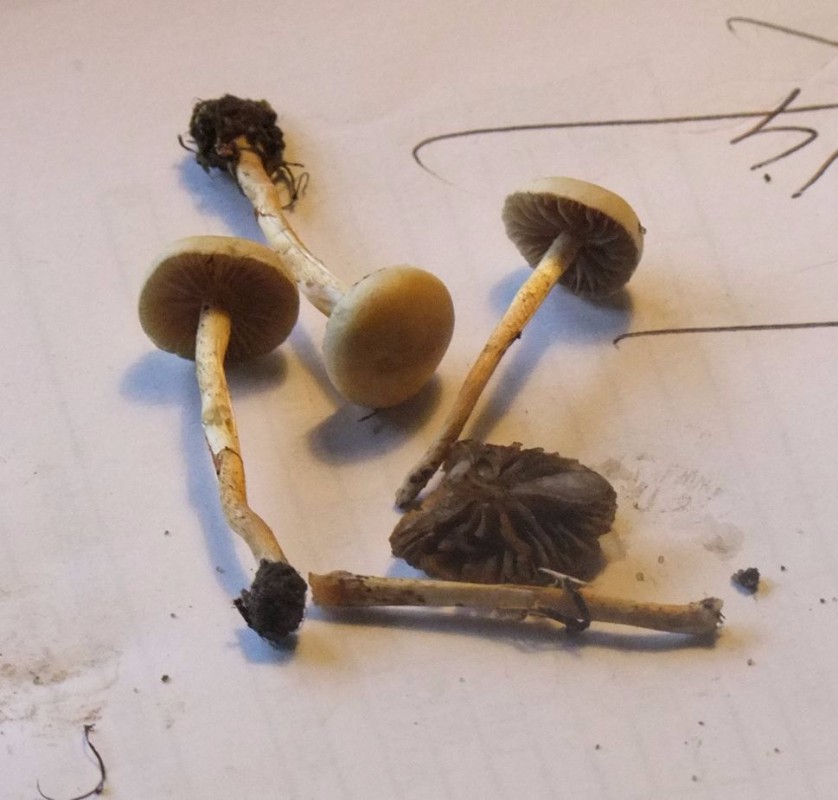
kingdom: Fungi
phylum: Basidiomycota
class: Agaricomycetes
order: Agaricales
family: Strophariaceae
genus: Agrocybe
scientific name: Agrocybe pediades
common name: almindelig agerhat
